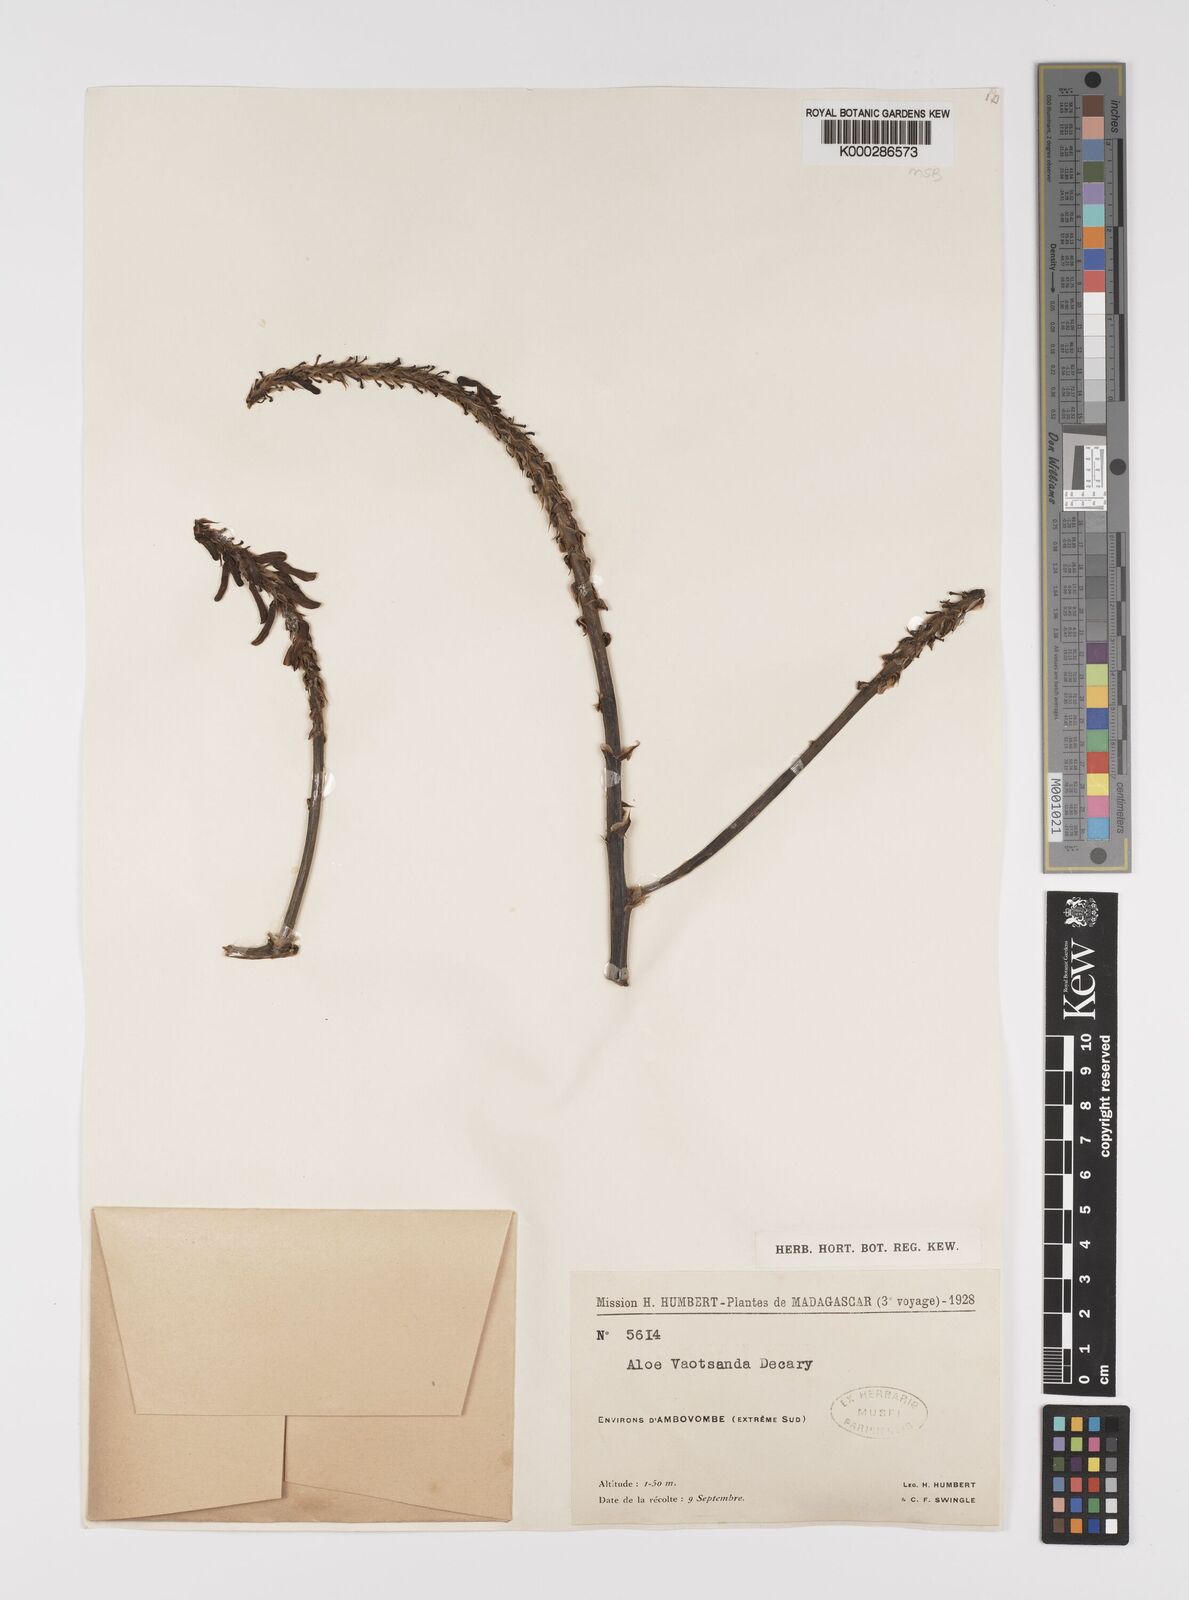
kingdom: Plantae
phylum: Tracheophyta
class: Liliopsida
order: Asparagales
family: Asphodelaceae
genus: Aloe
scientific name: Aloe vaotsanda
